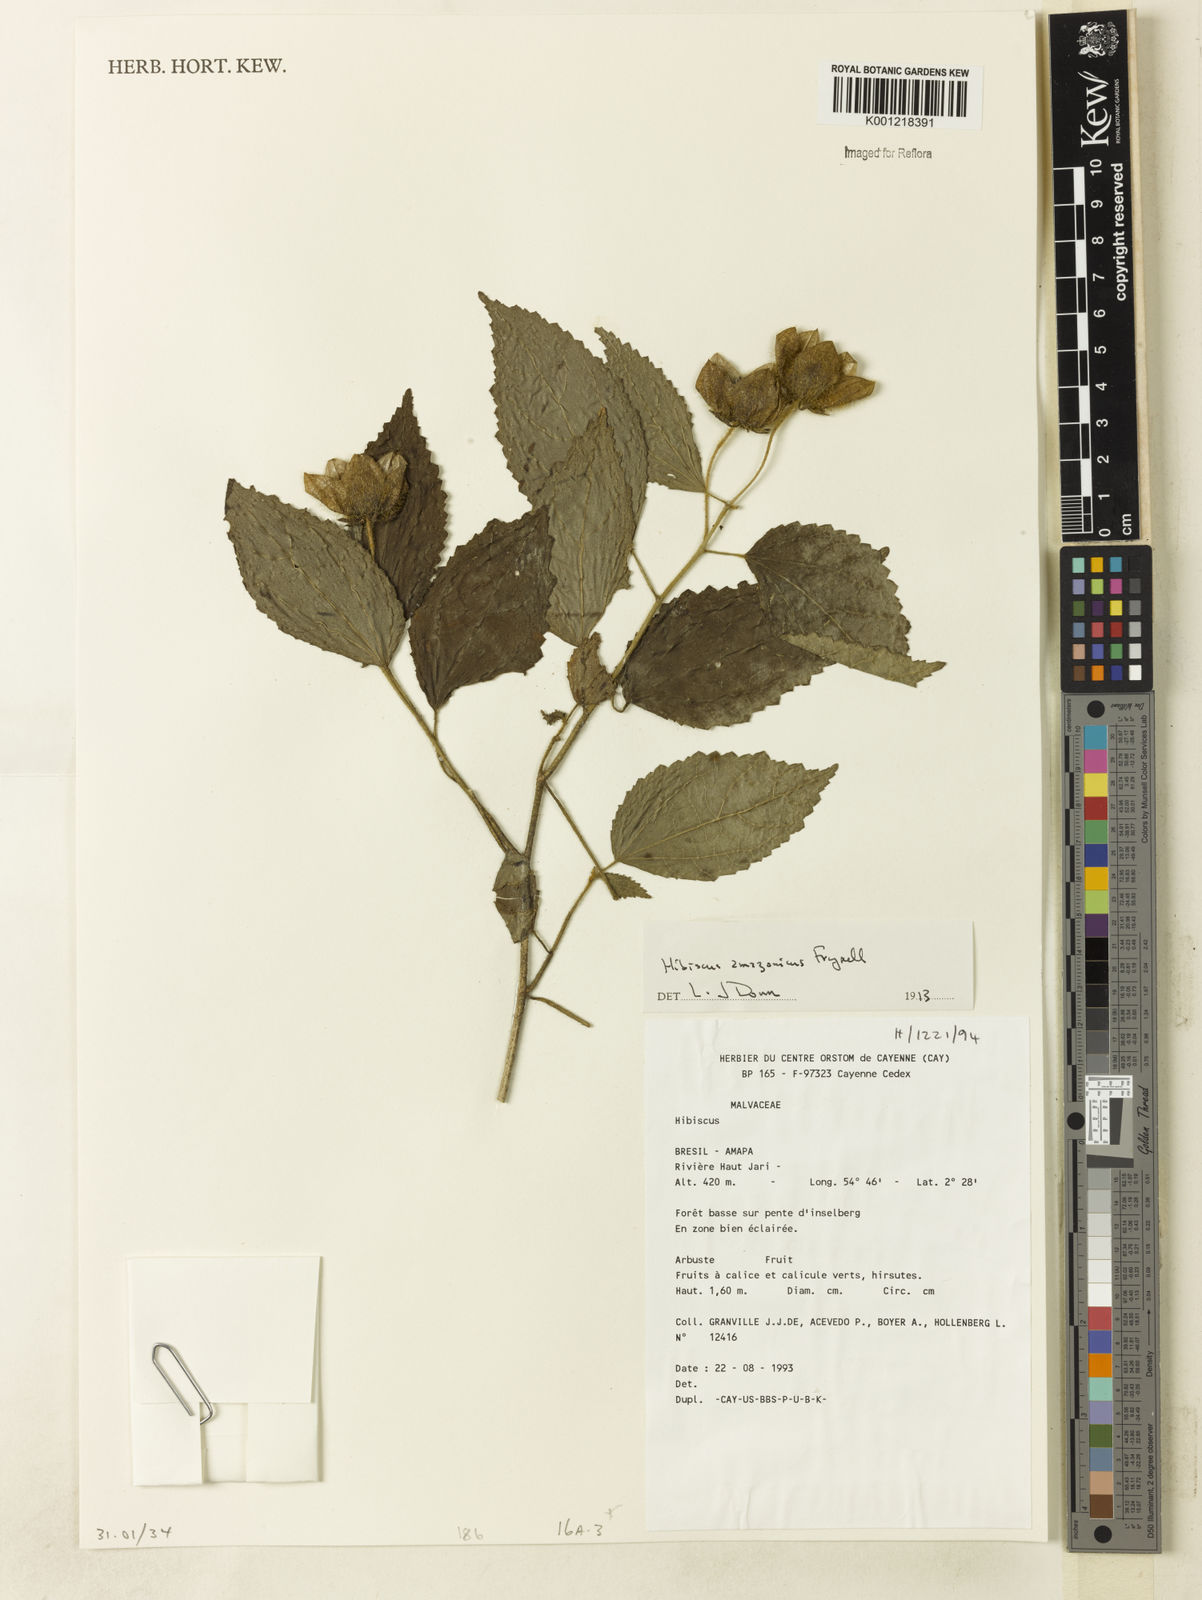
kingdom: Plantae
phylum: Tracheophyta
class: Magnoliopsida
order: Malvales
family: Malvaceae
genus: Hibiscus
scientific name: Hibiscus amazonicus
